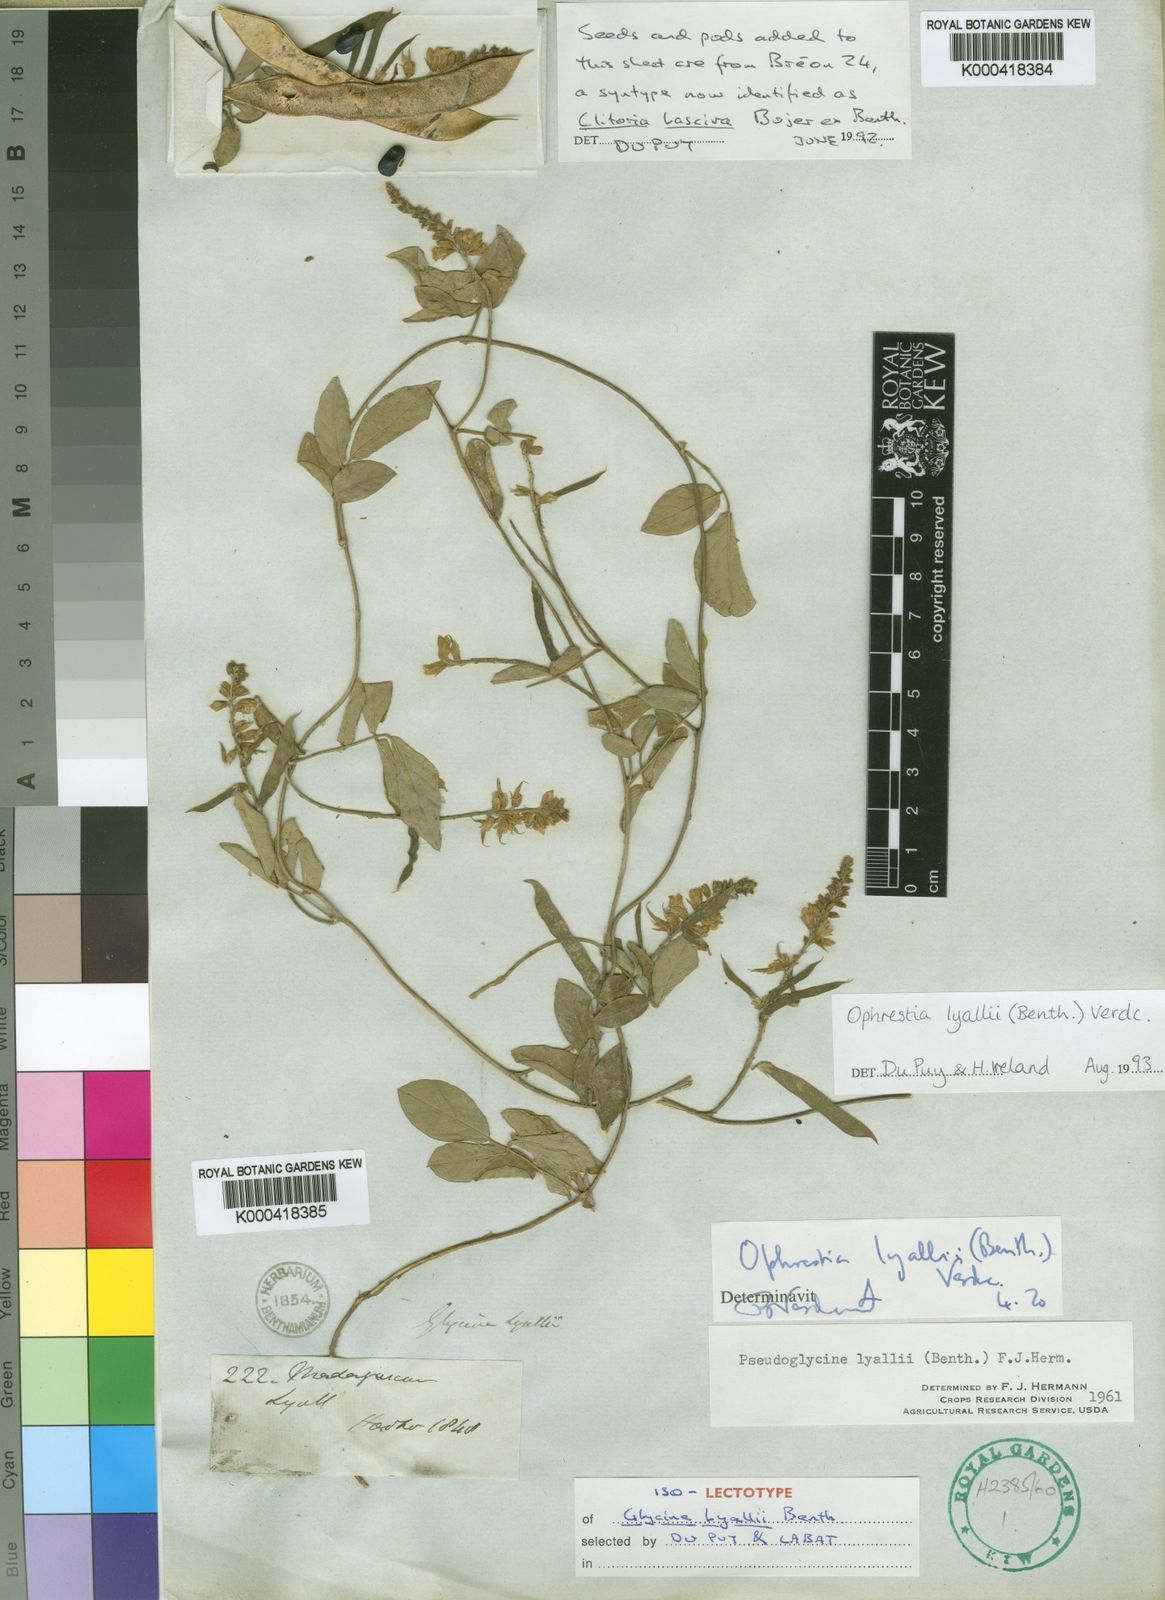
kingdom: Plantae
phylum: Tracheophyta
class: Magnoliopsida
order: Fabales
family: Fabaceae
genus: Ophrestia
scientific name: Ophrestia lyallii
